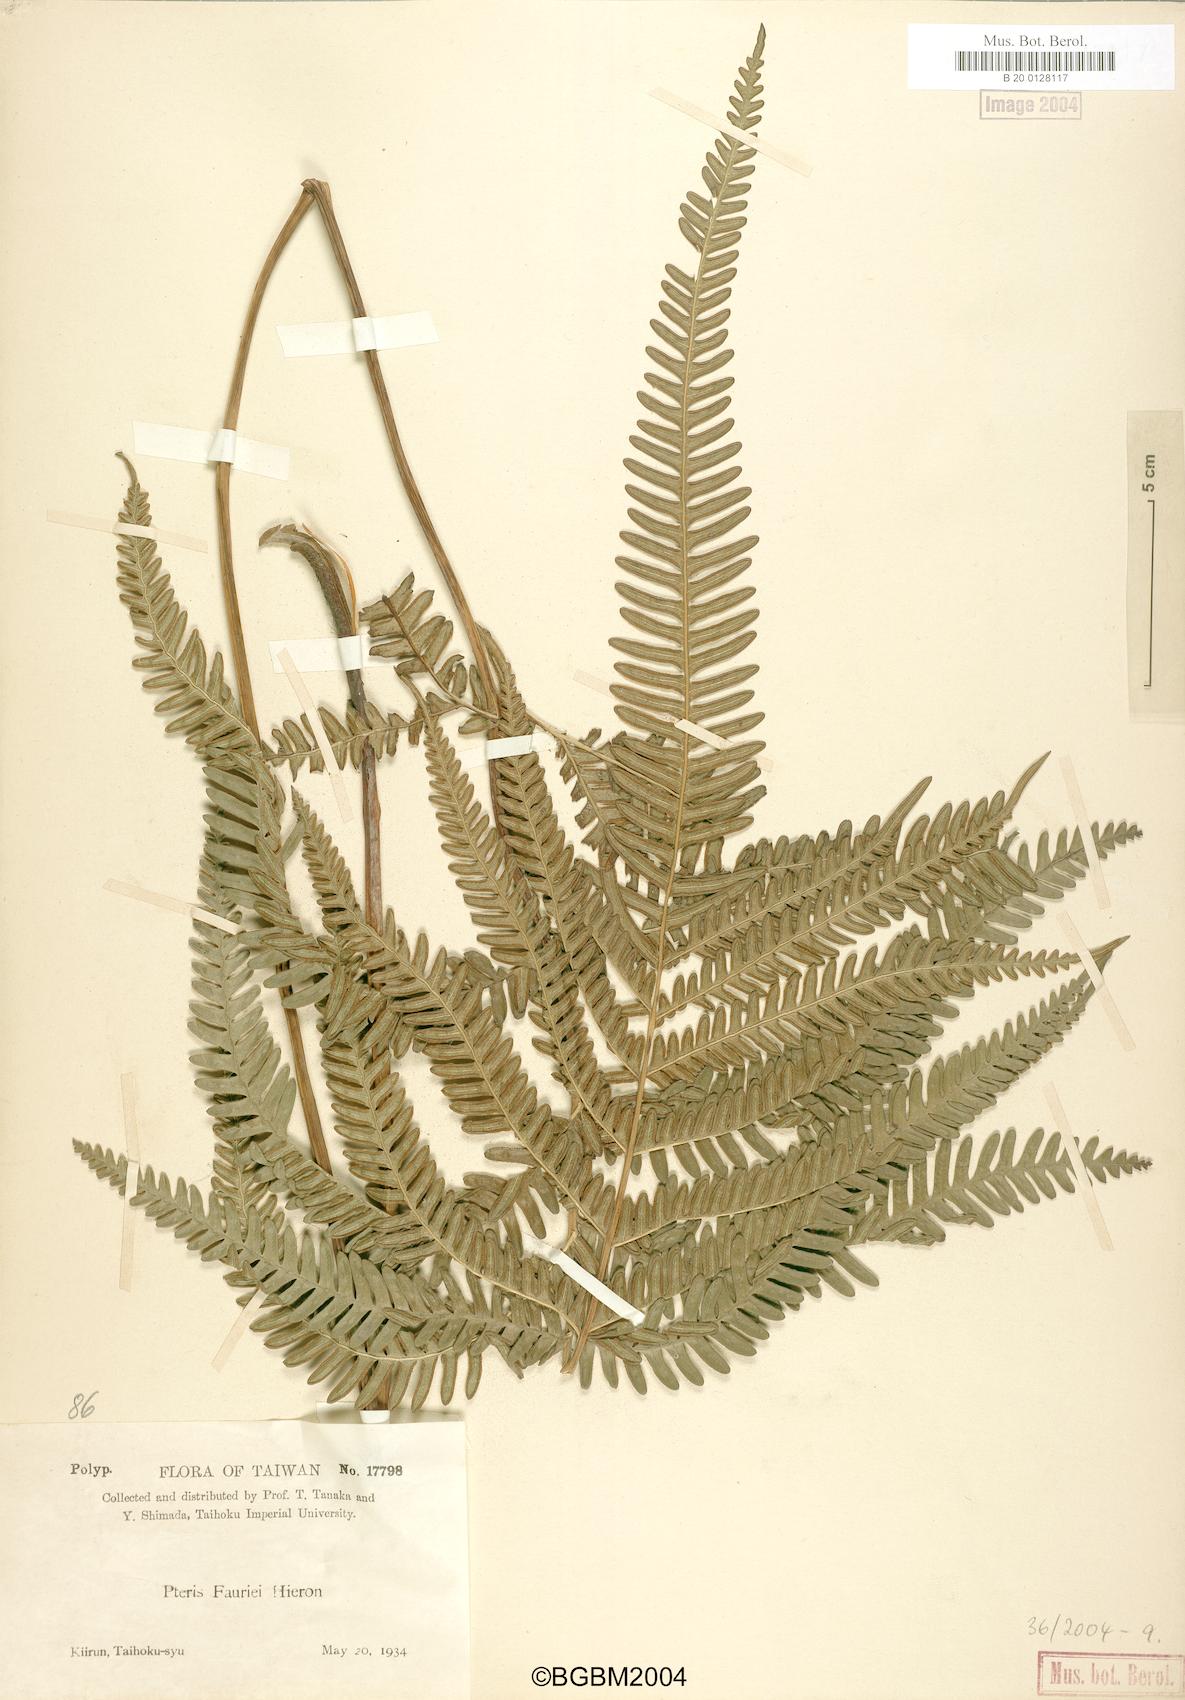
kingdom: Plantae
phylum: Tracheophyta
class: Polypodiopsida
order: Polypodiales
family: Pteridaceae
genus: Pteris
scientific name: Pteris fauriei
